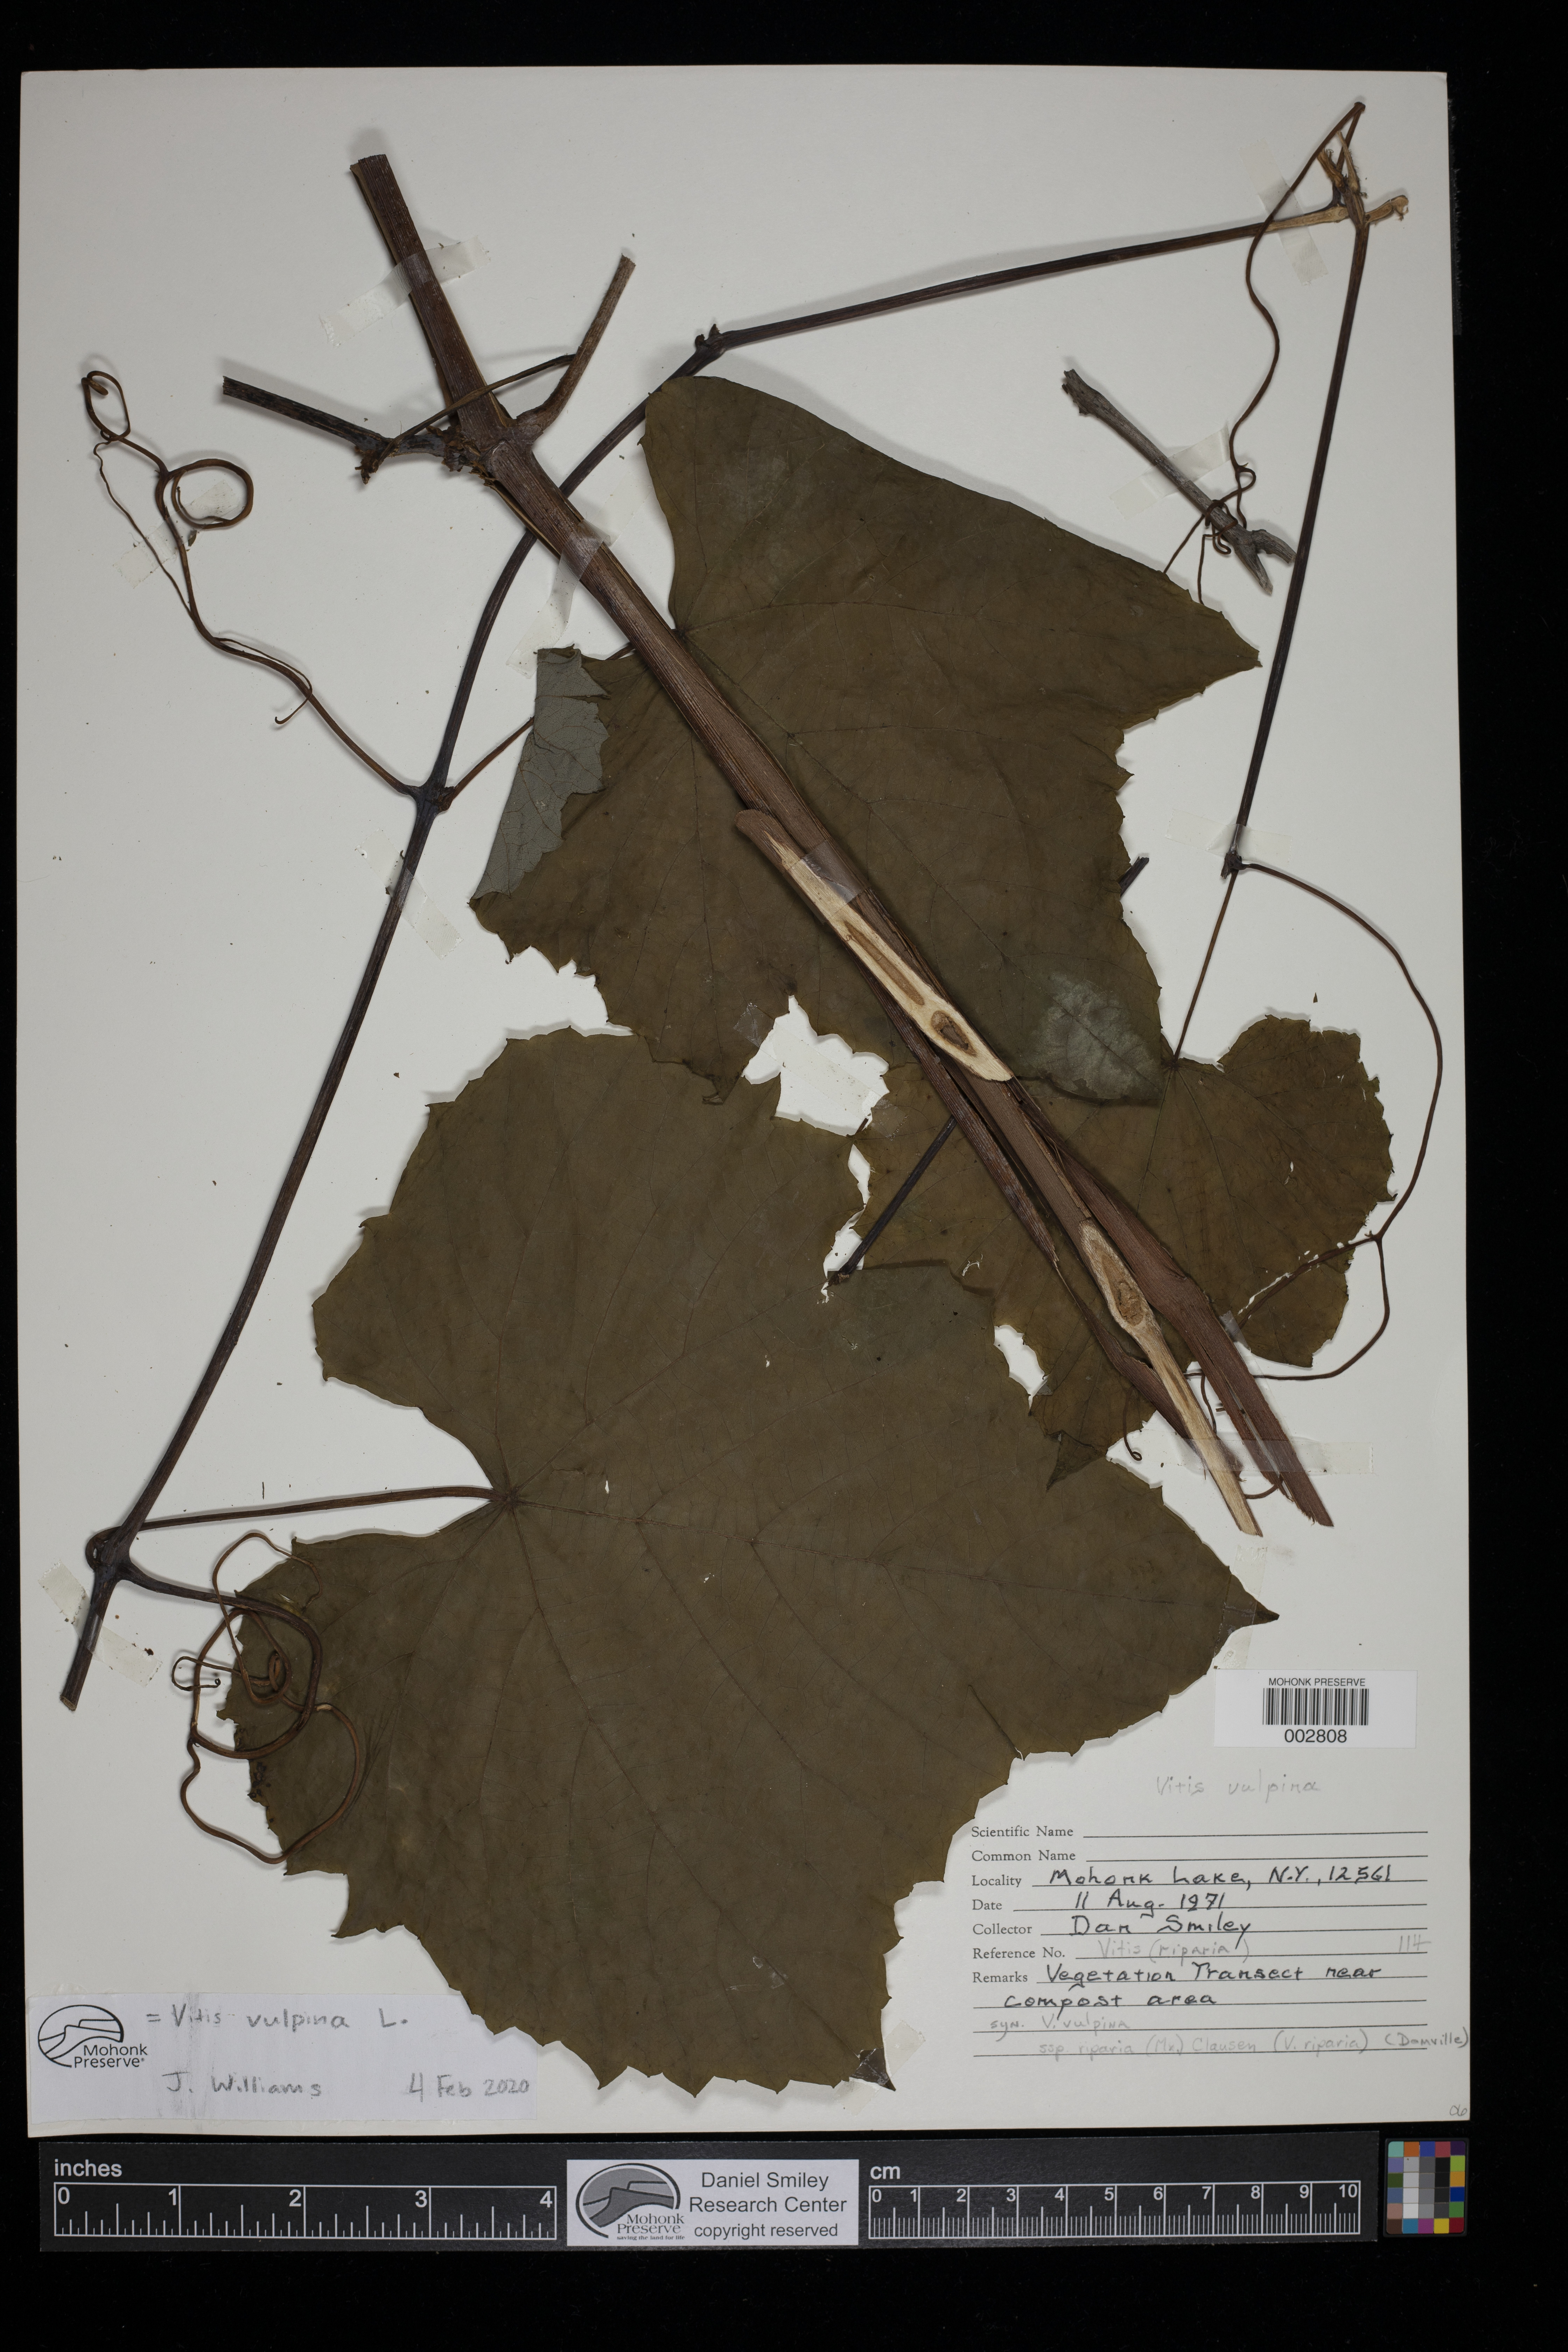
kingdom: Plantae
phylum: Tracheophyta
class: Magnoliopsida
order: Vitales
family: Vitaceae
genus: Vitis
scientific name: Vitis vulpina
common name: Frost grape
